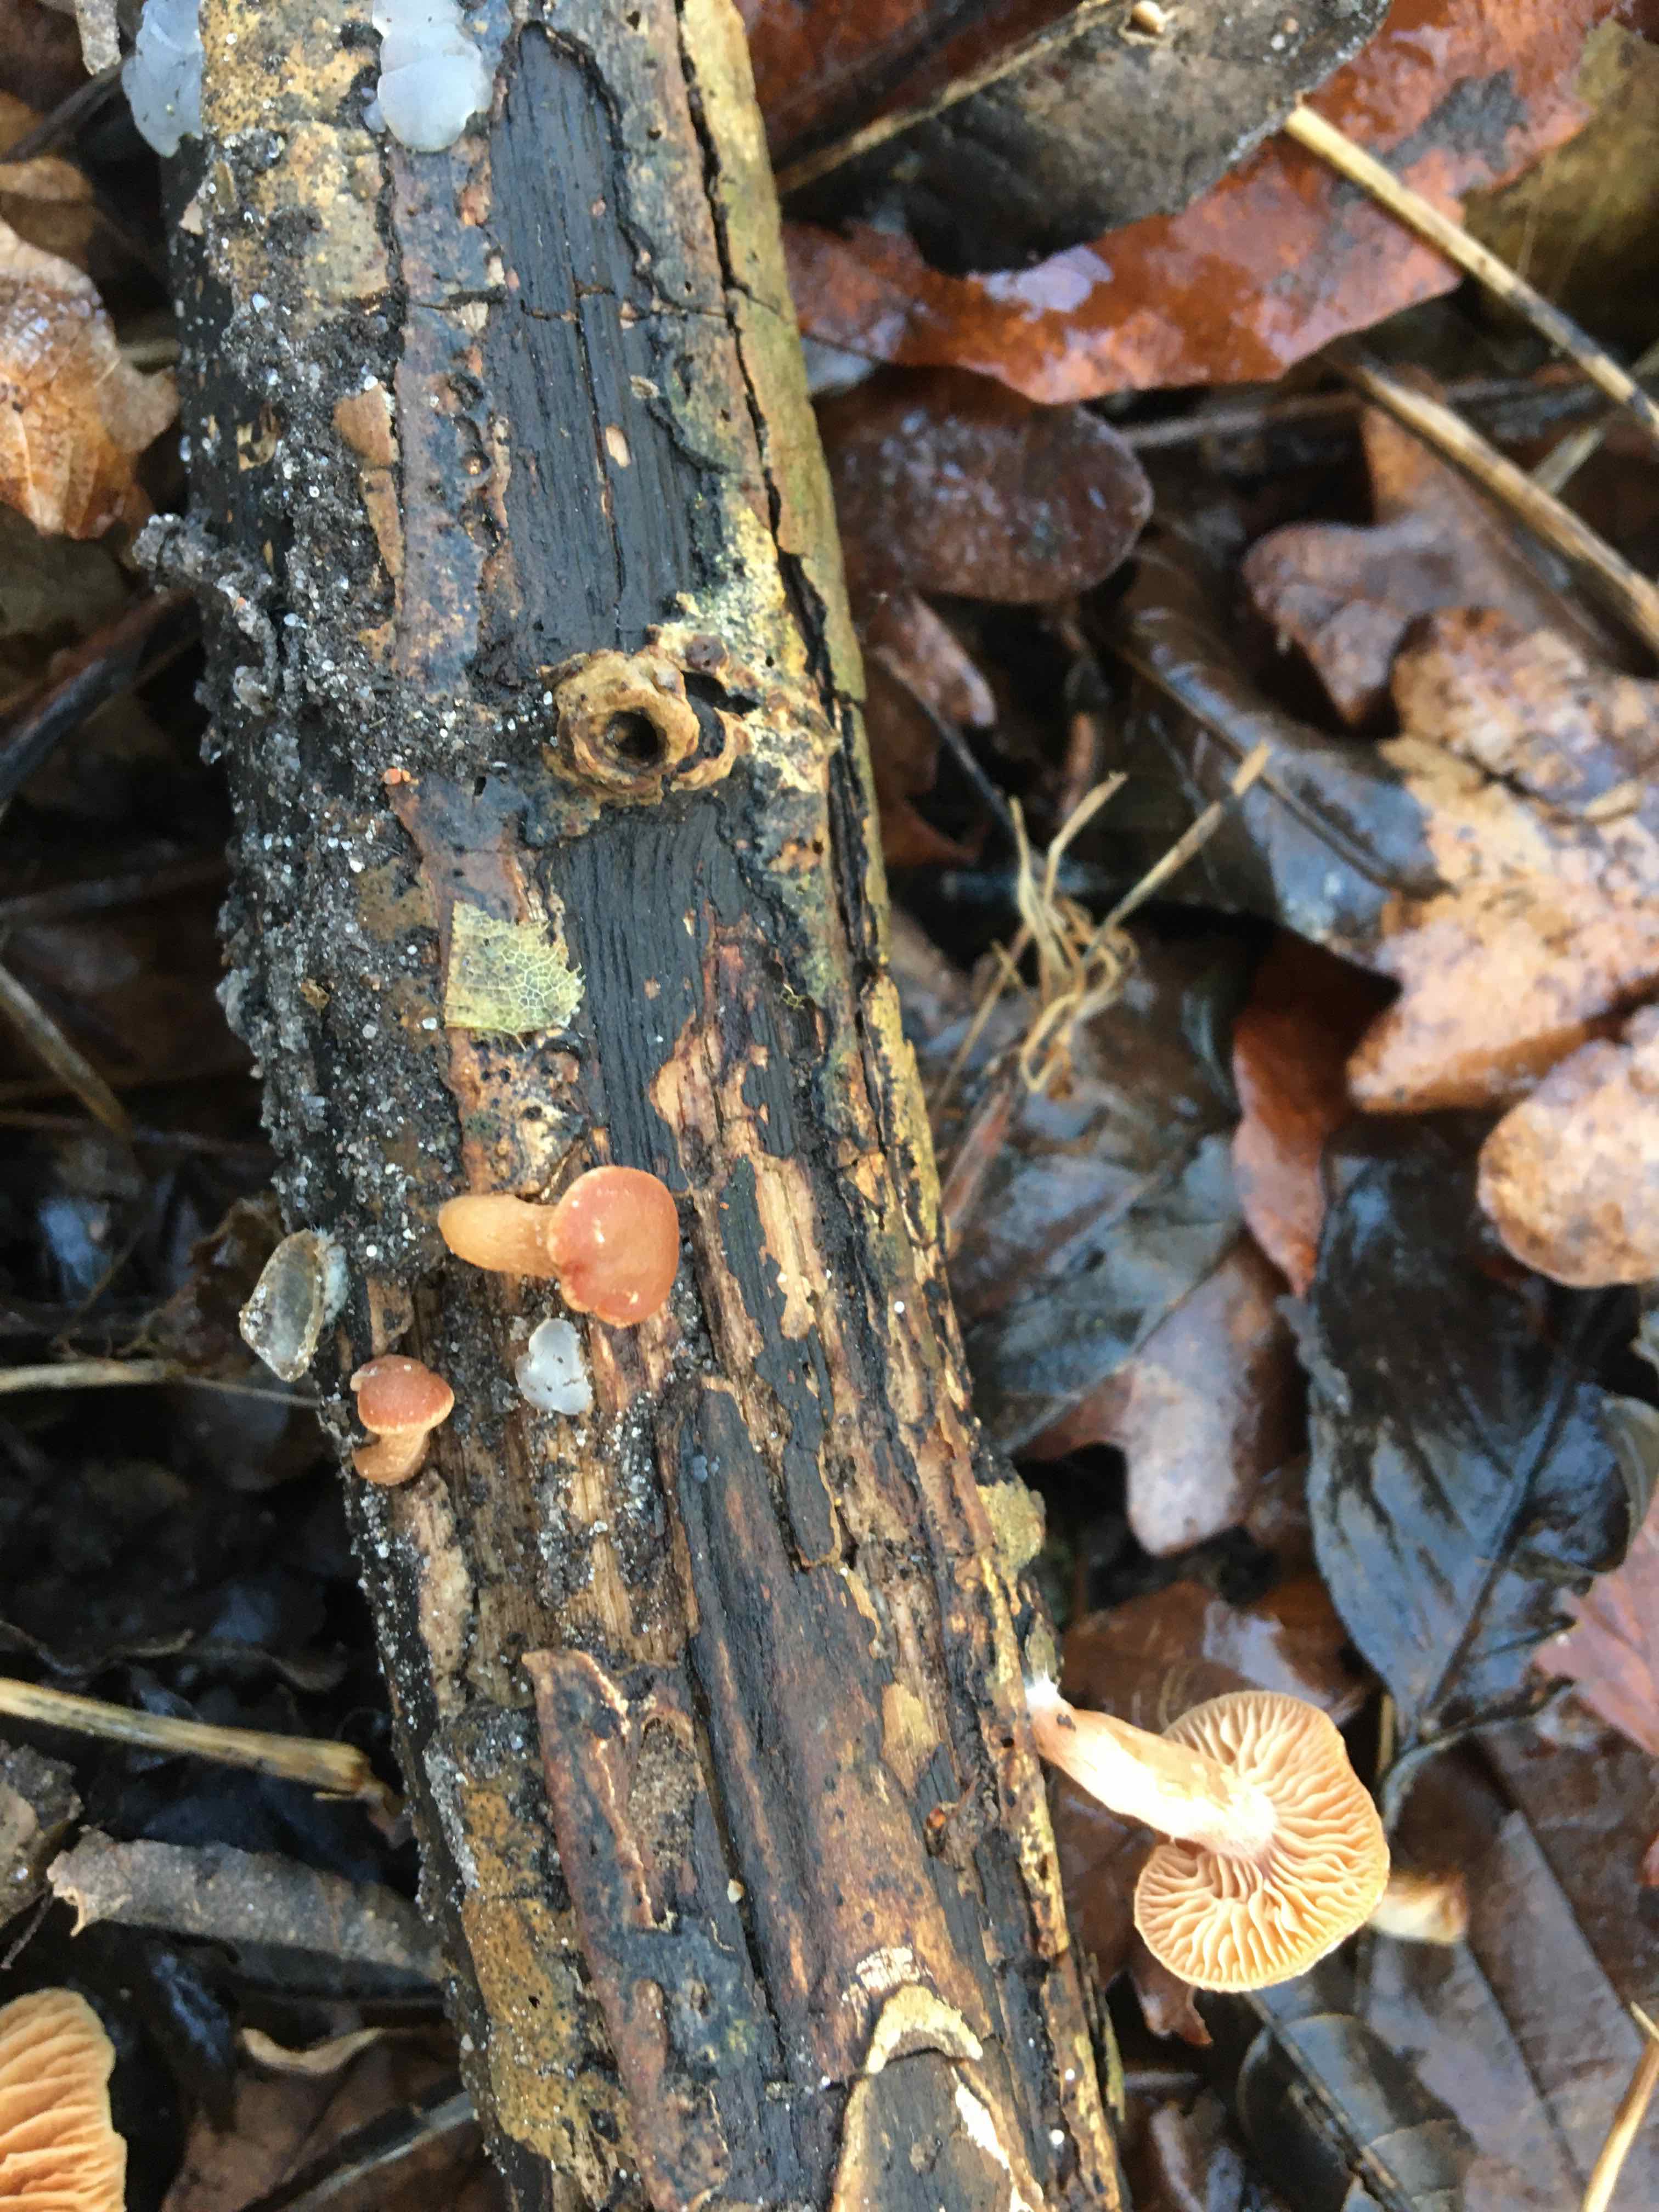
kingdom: Fungi
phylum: Basidiomycota
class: Agaricomycetes
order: Agaricales
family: Tubariaceae
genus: Tubaria
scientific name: Tubaria furfuracea
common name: kliddet fnughat
